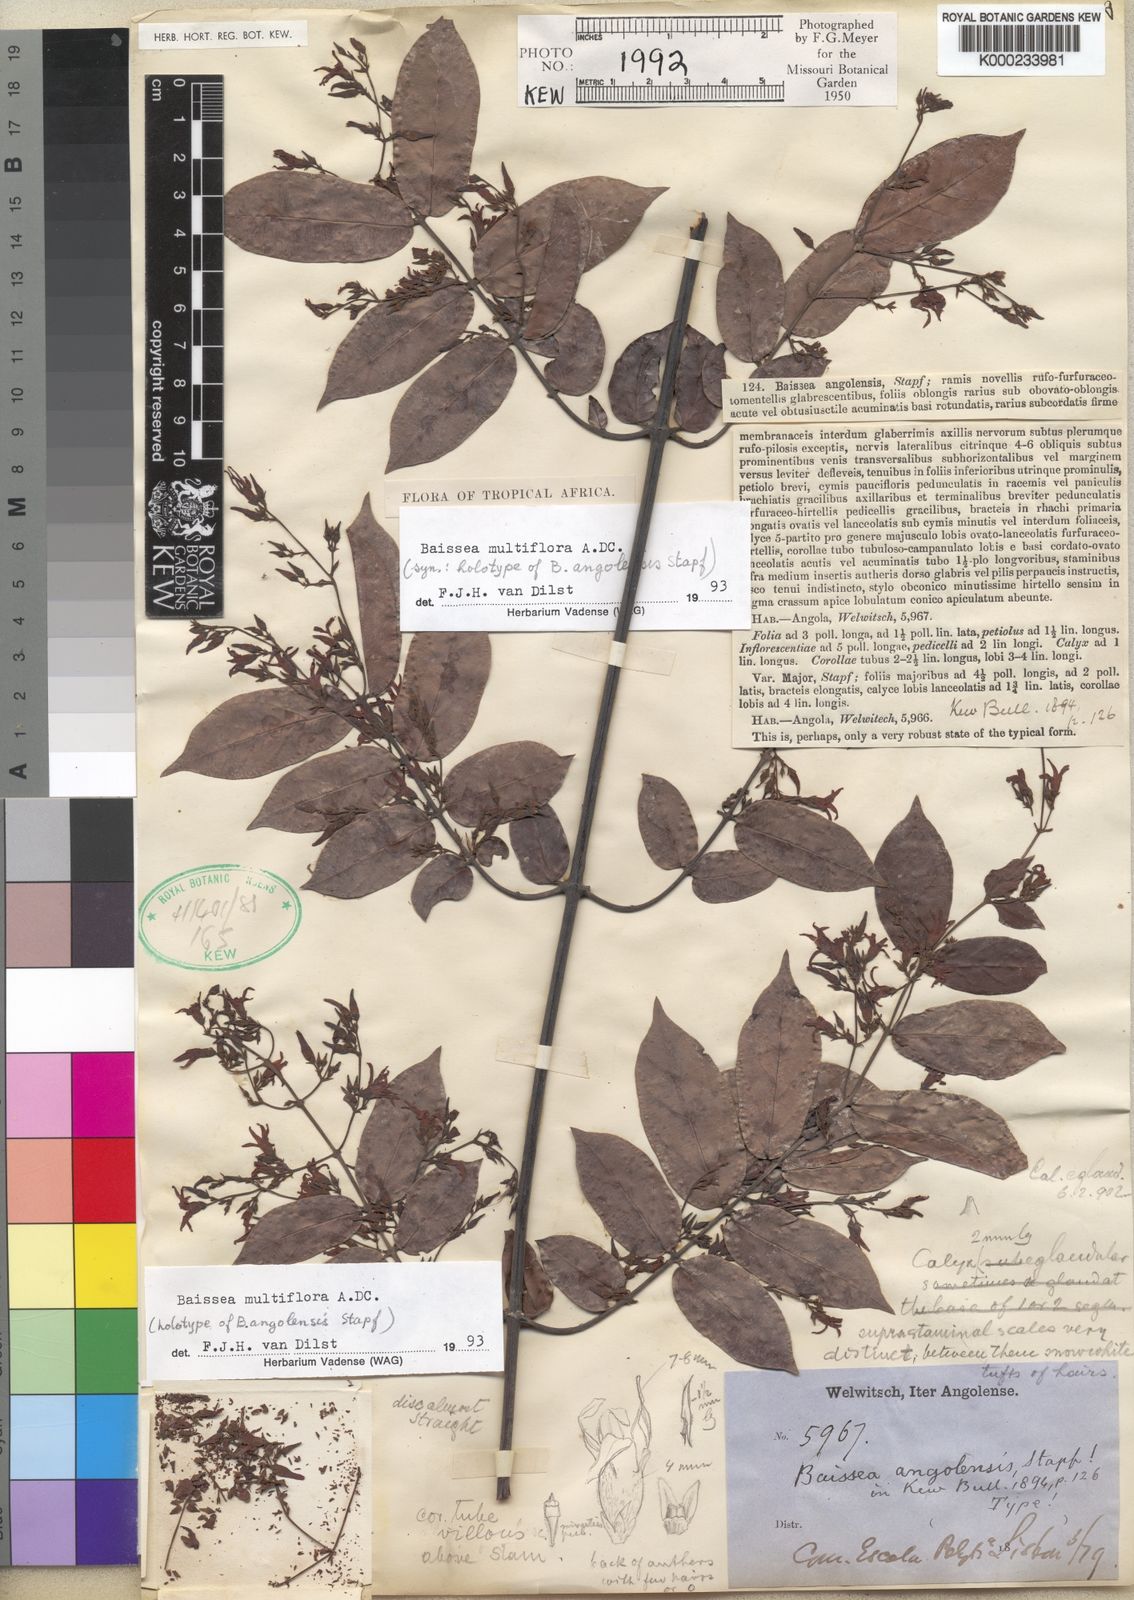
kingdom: Plantae
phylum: Tracheophyta
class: Magnoliopsida
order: Gentianales
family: Apocynaceae
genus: Baissea
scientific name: Baissea multiflora
